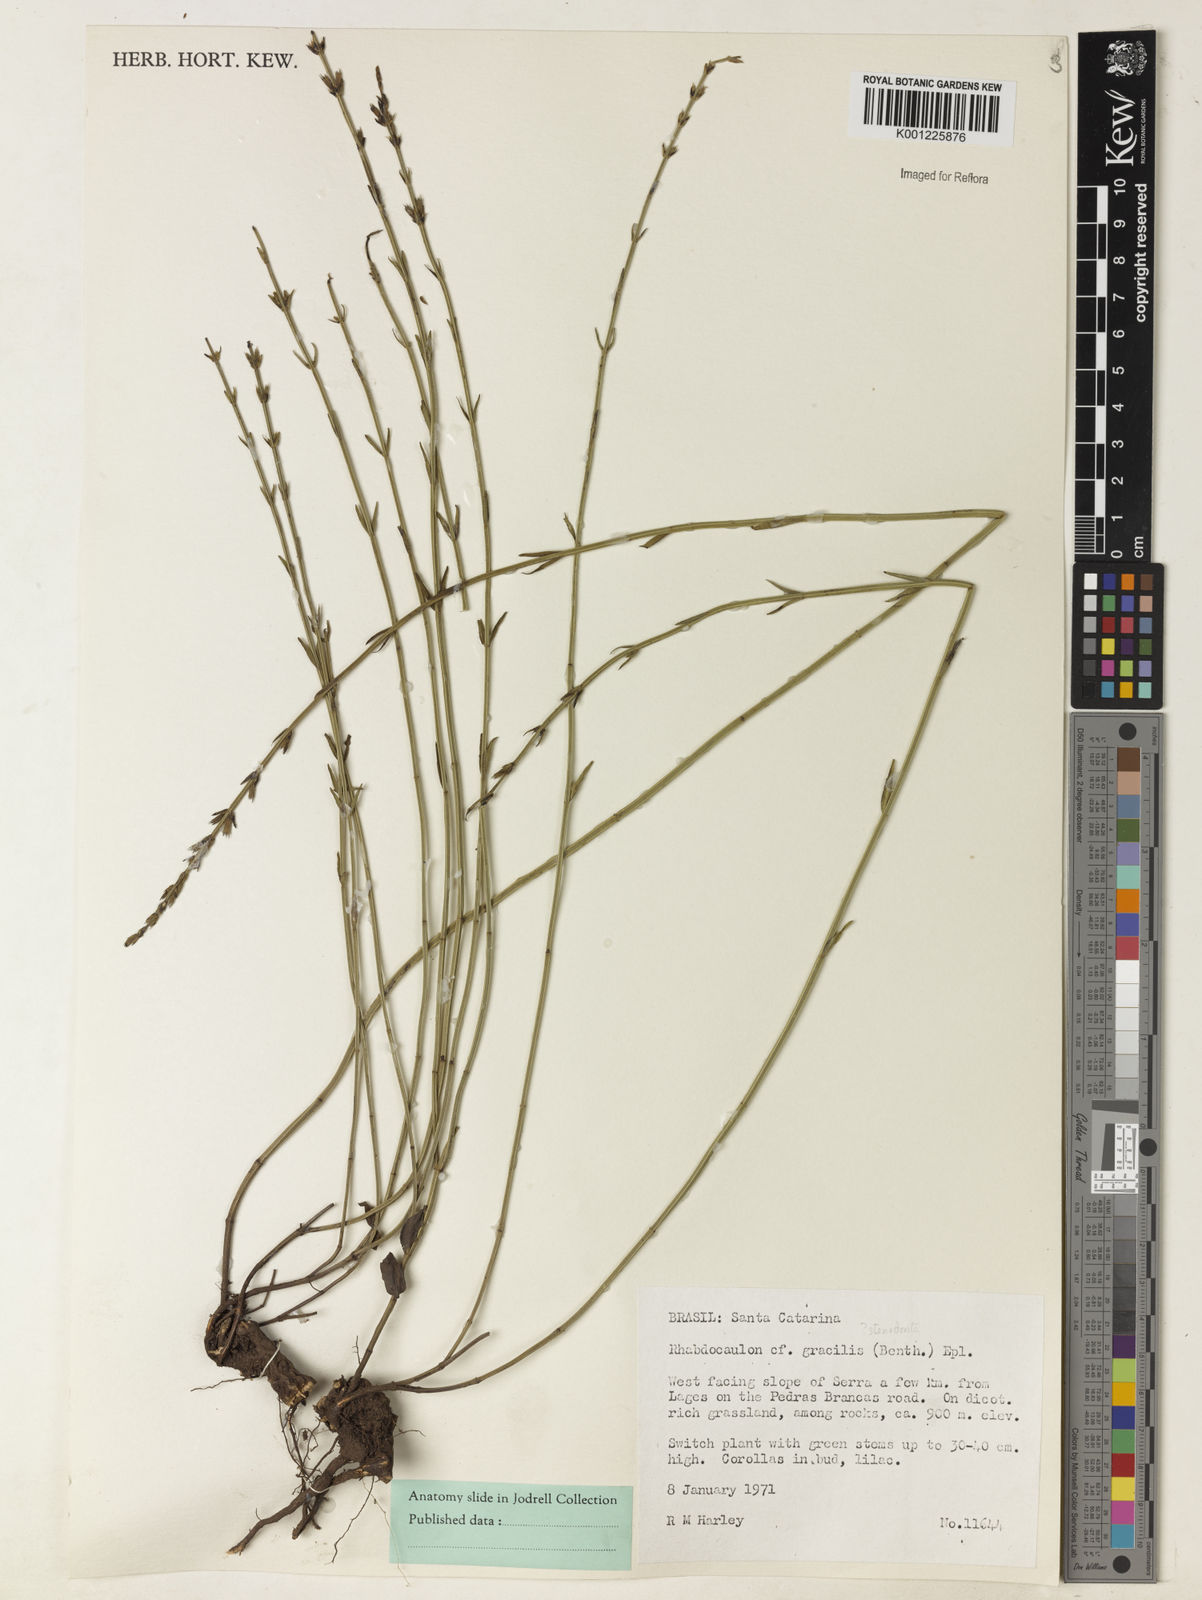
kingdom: Plantae
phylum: Tracheophyta
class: Magnoliopsida
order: Lamiales
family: Lamiaceae
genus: Rhabdocaulon
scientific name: Rhabdocaulon stenodontum
